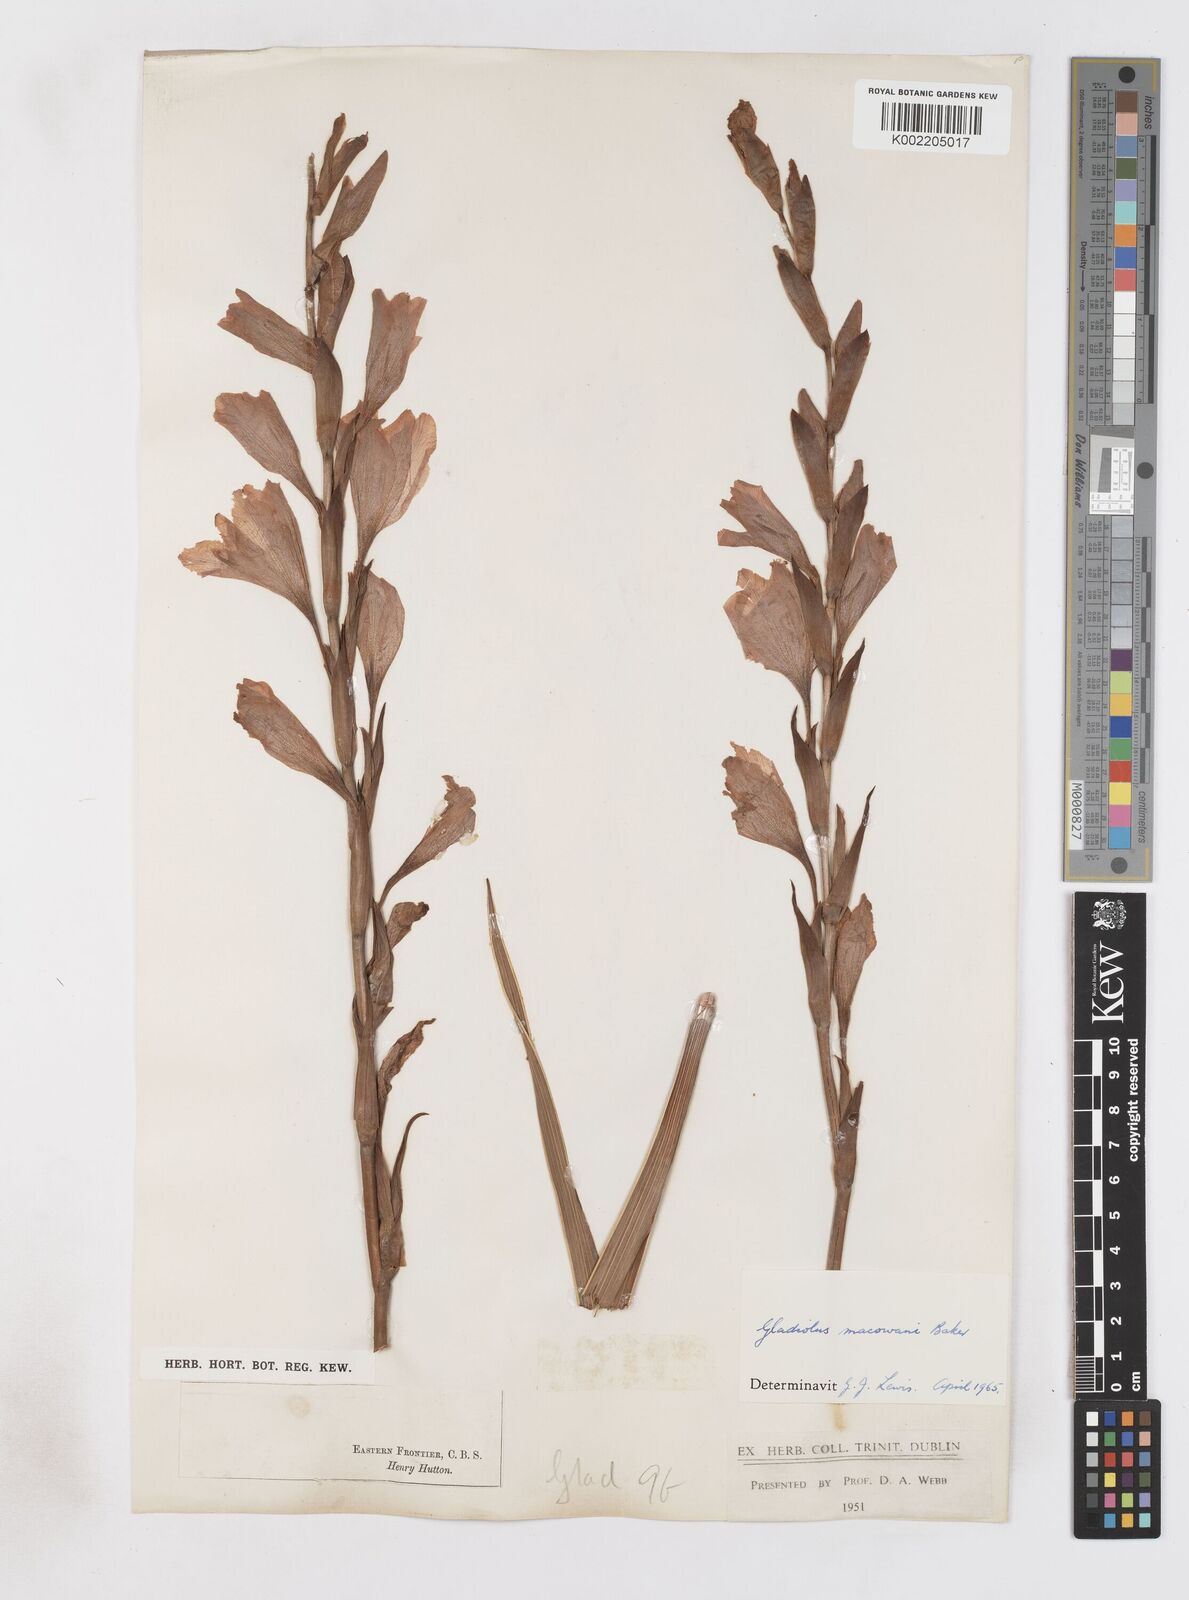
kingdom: Plantae
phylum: Tracheophyta
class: Liliopsida
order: Asparagales
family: Iridaceae
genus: Gladiolus
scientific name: Gladiolus mortonius
